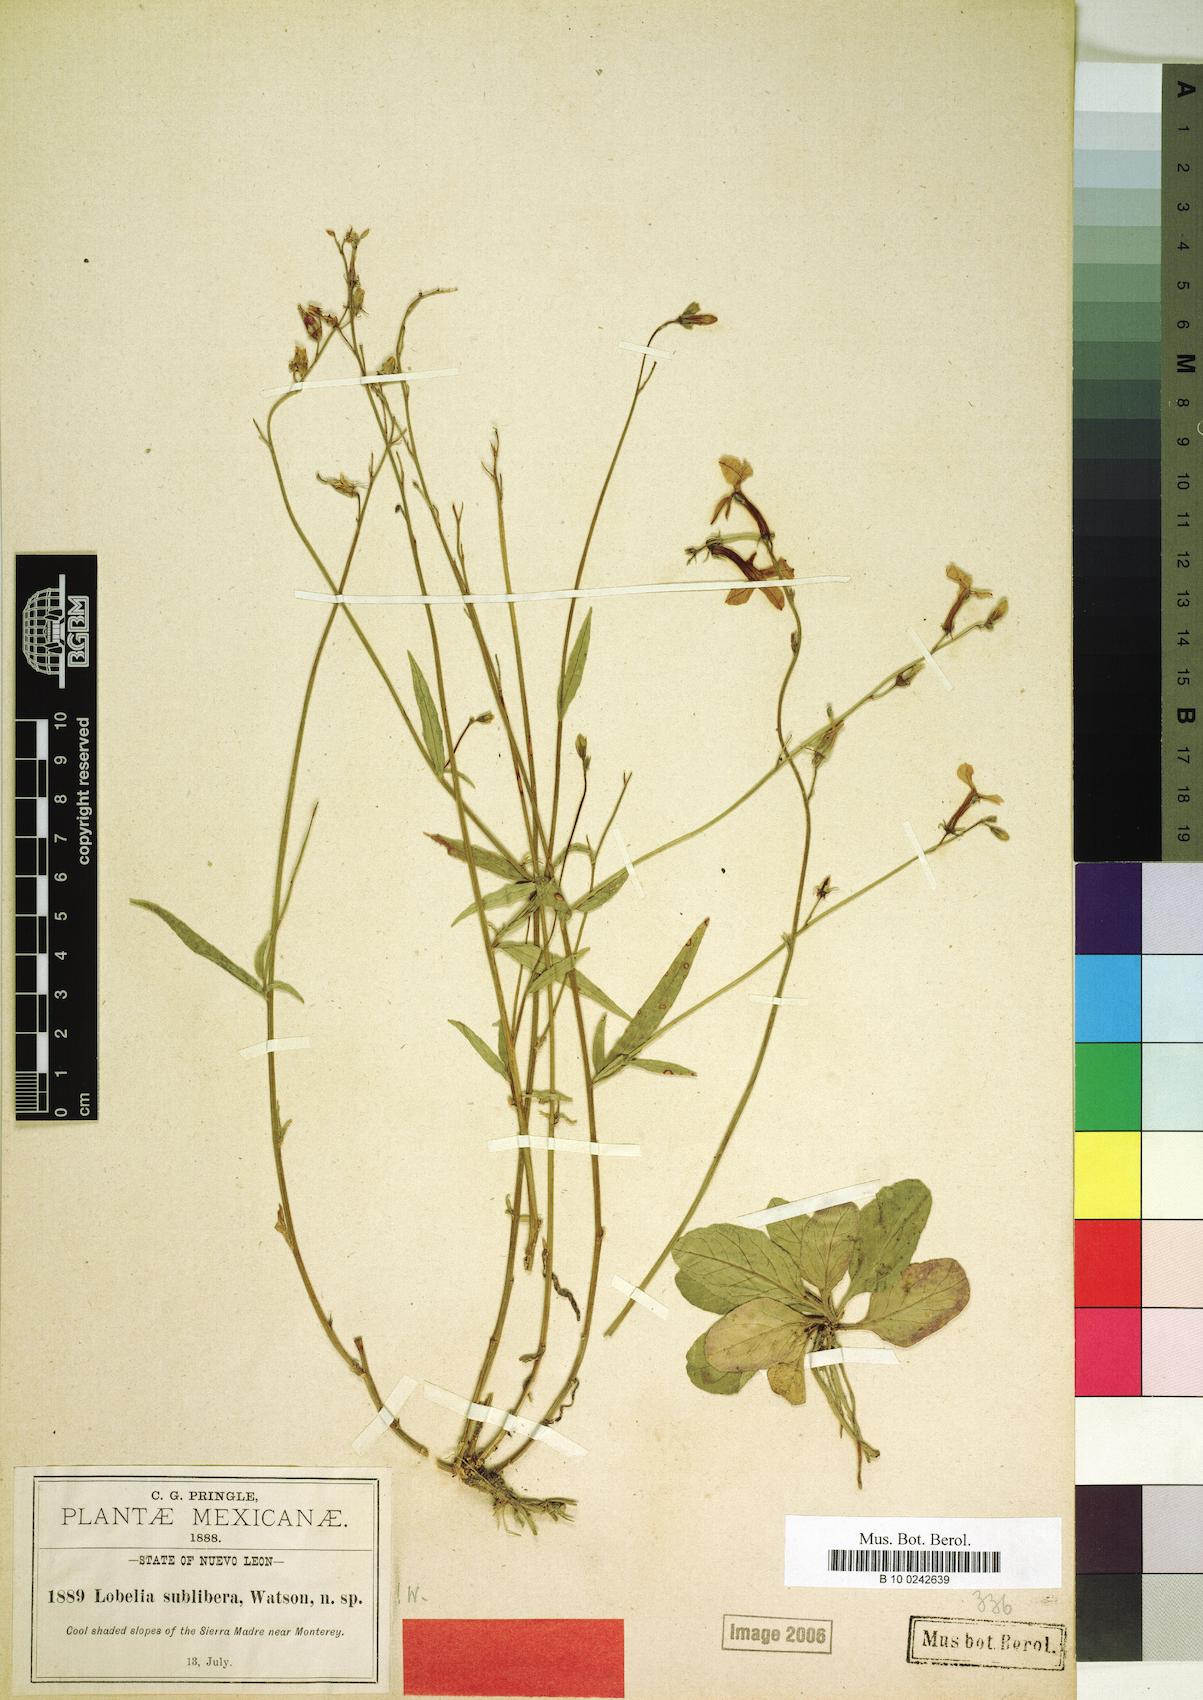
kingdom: Plantae
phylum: Tracheophyta
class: Magnoliopsida
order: Asterales
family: Campanulaceae
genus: Lobelia
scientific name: Lobelia sublibera
